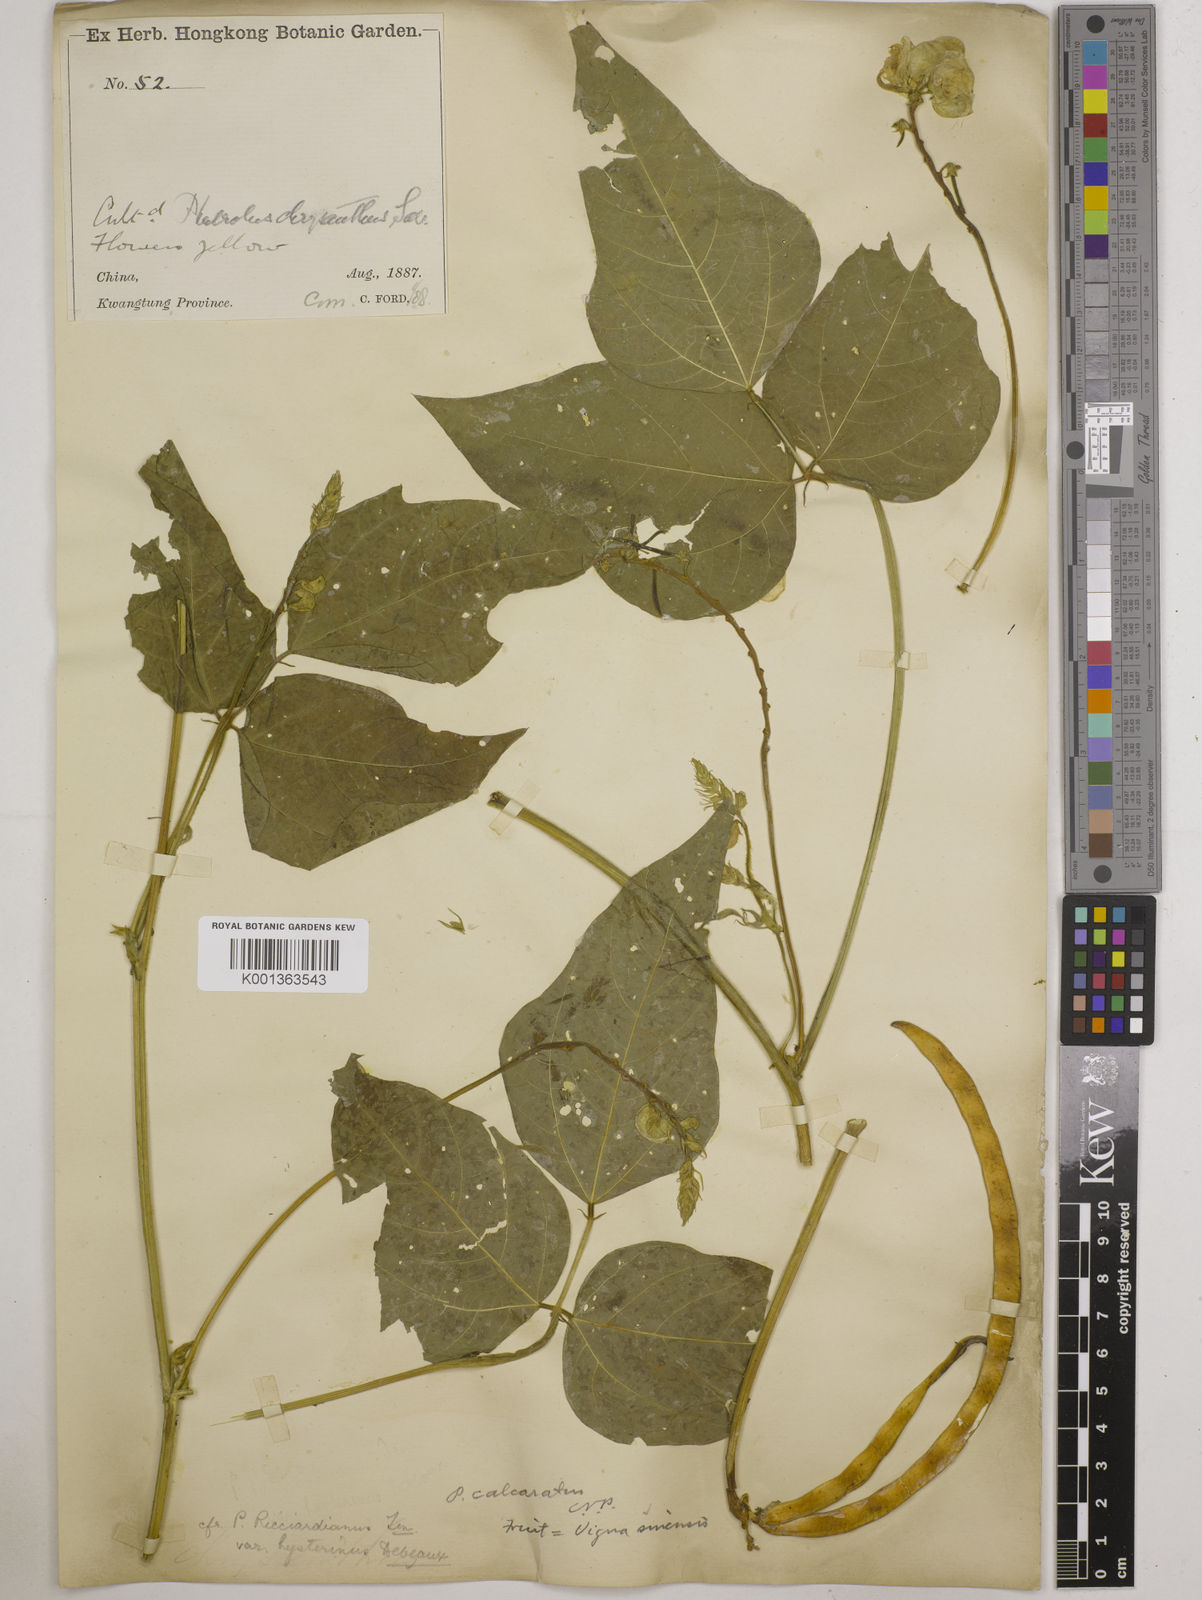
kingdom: Plantae
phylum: Tracheophyta
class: Magnoliopsida
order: Fabales
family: Fabaceae
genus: Vigna
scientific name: Vigna umbellata
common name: Oriental-bean
